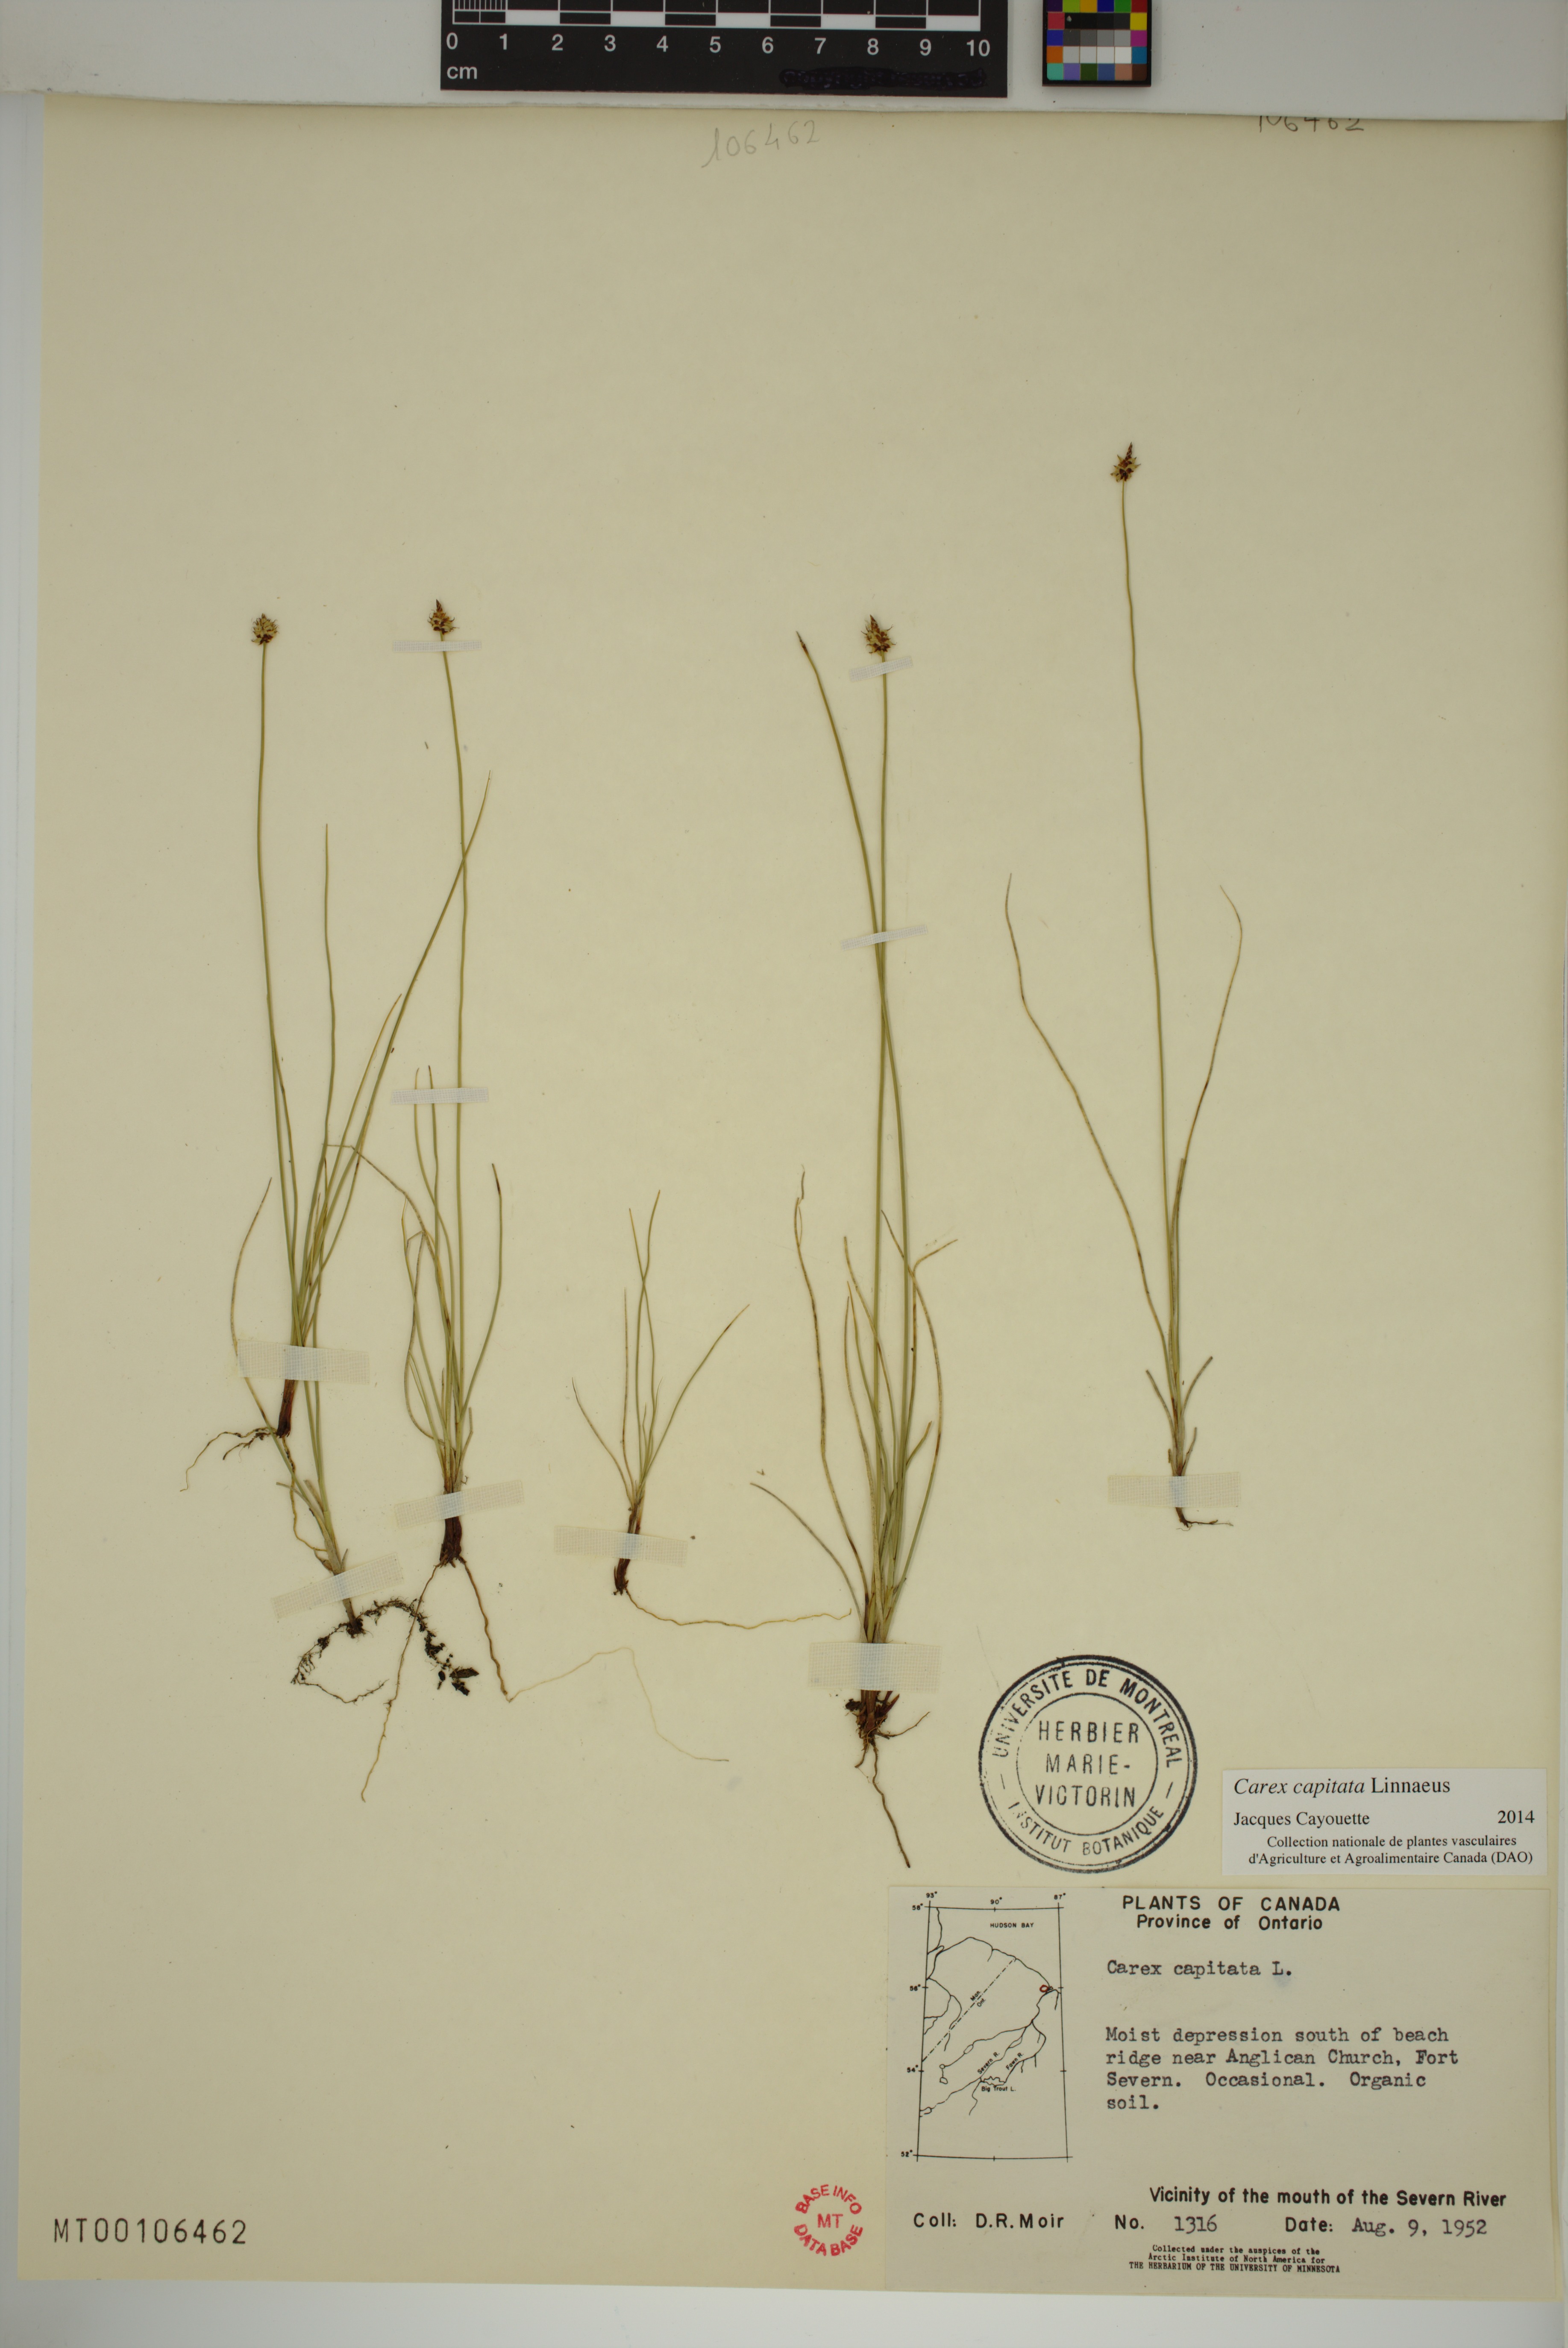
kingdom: Plantae
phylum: Tracheophyta
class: Liliopsida
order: Poales
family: Cyperaceae
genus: Carex
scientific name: Carex capitata
